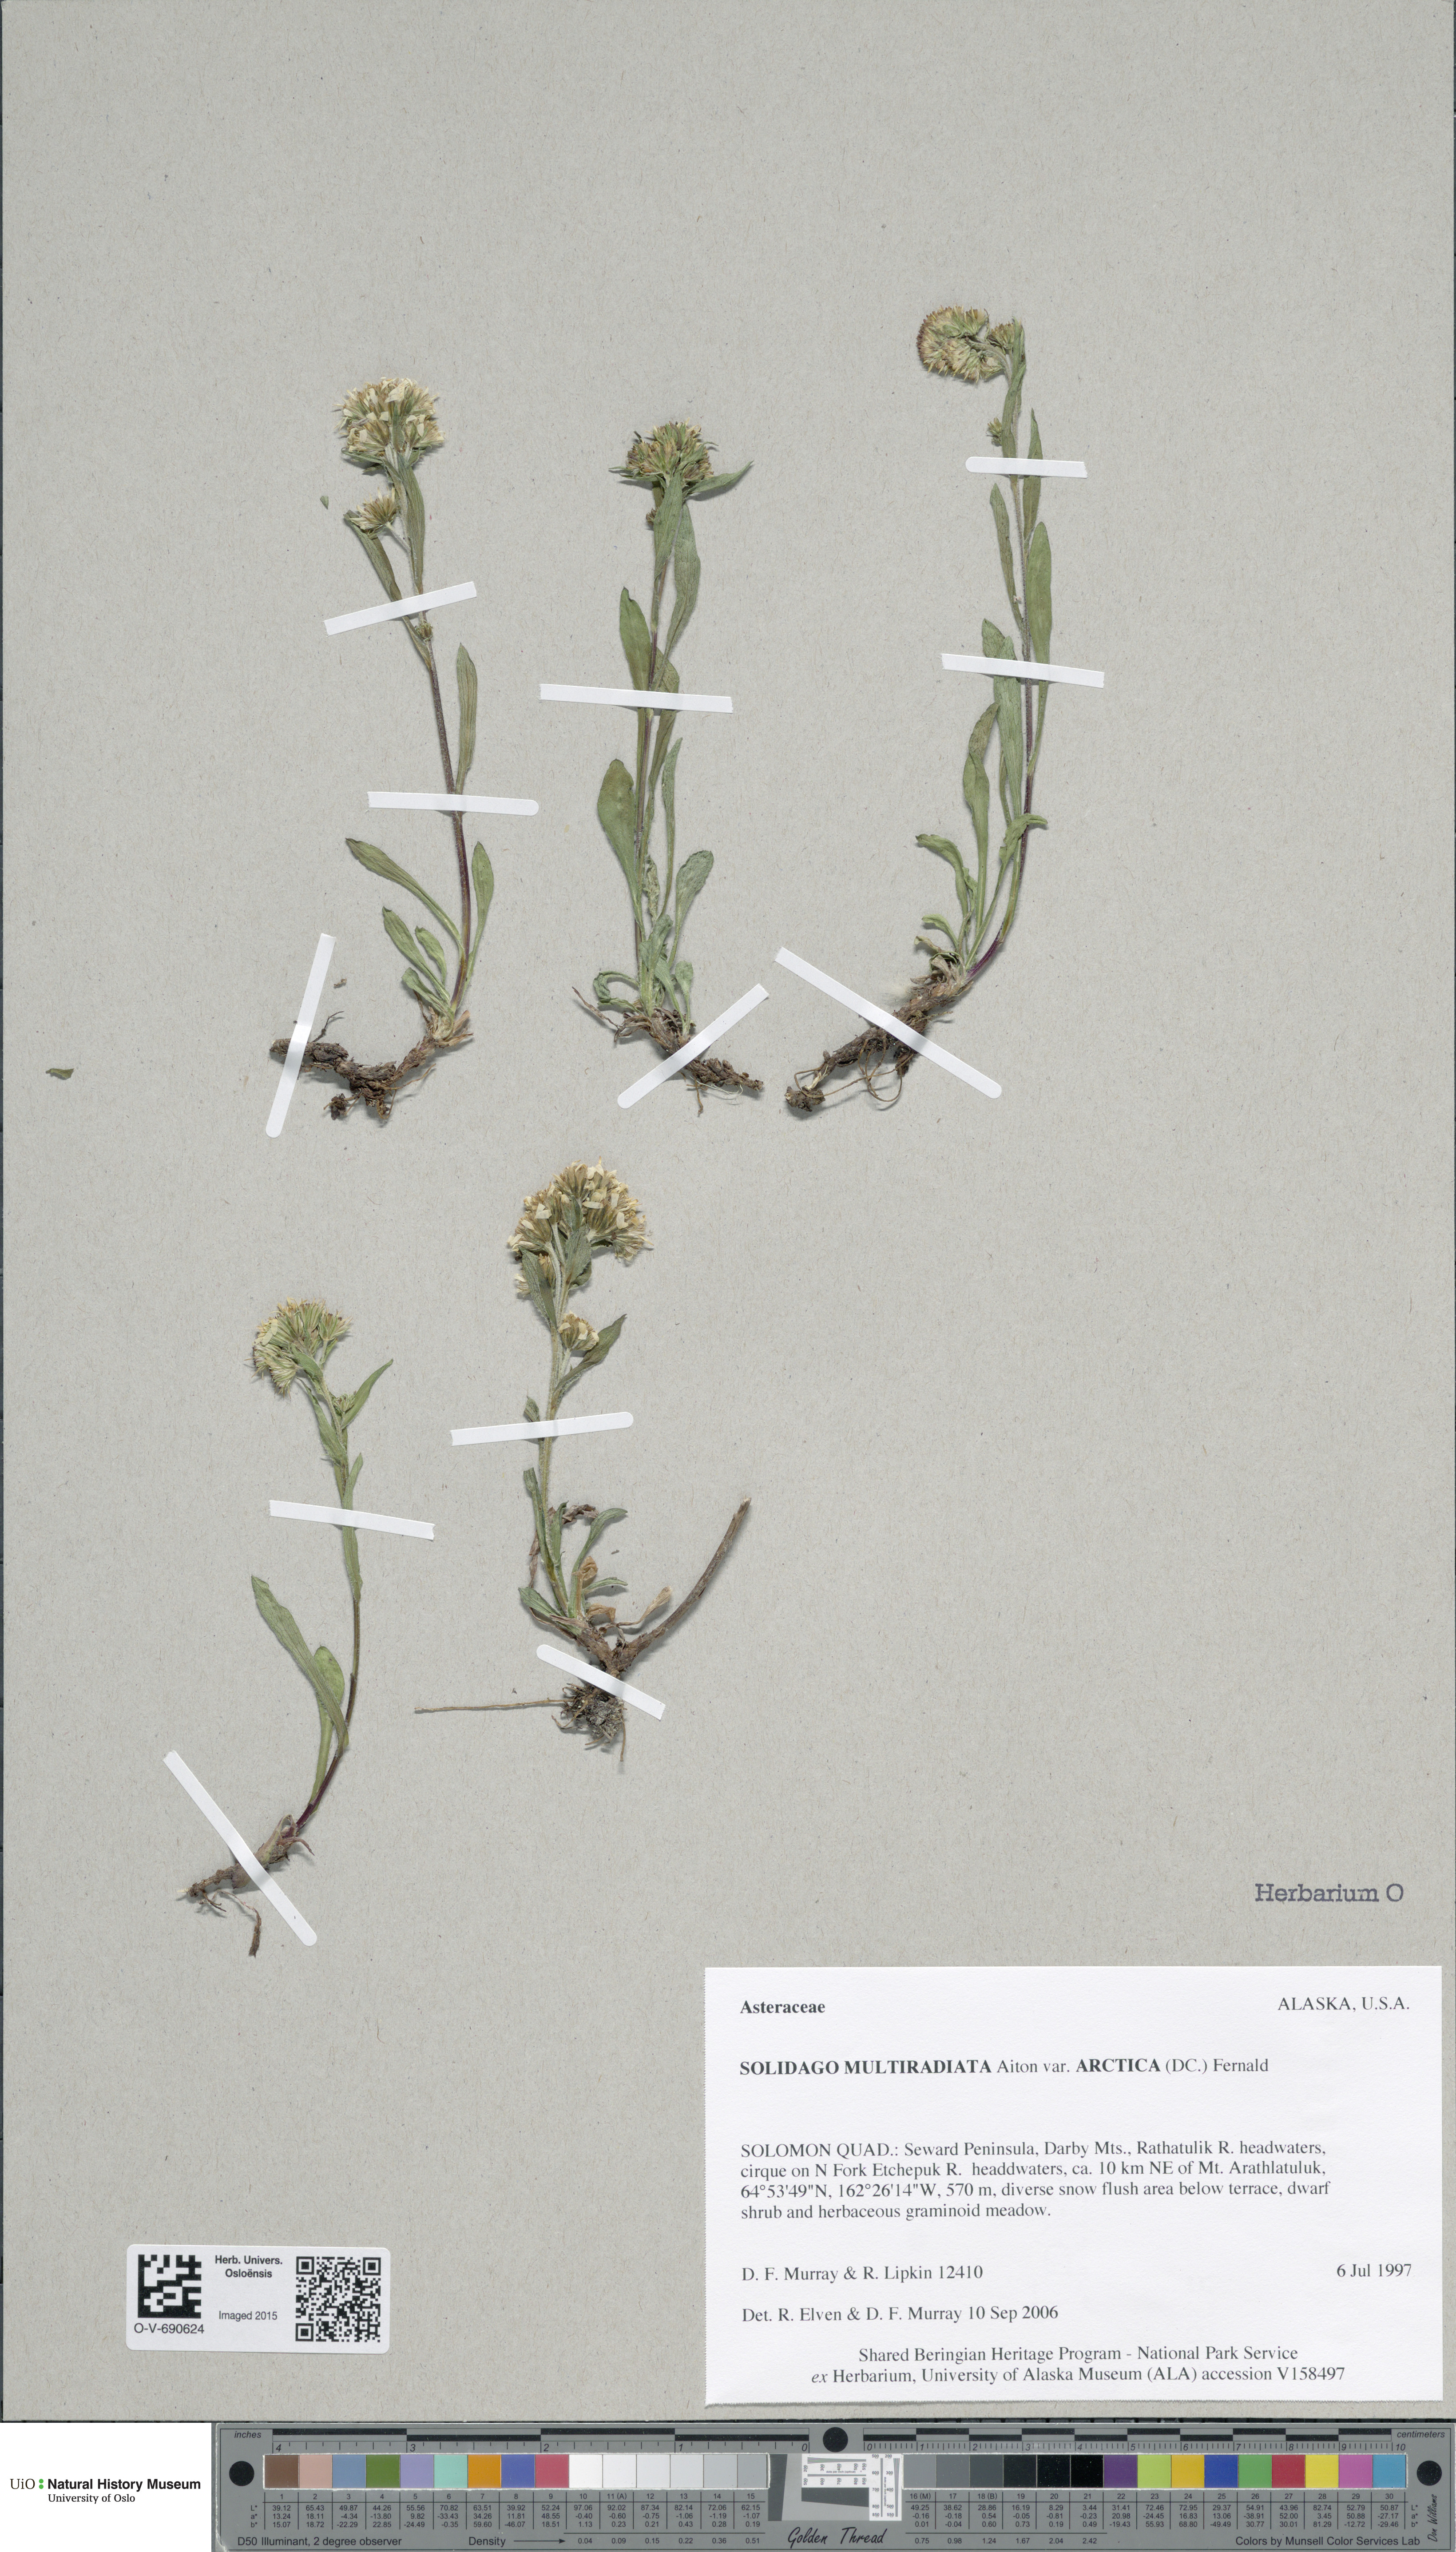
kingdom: Plantae
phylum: Tracheophyta
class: Magnoliopsida
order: Asterales
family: Asteraceae
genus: Solidago
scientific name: Solidago multiradiata
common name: Northern goldenrod
